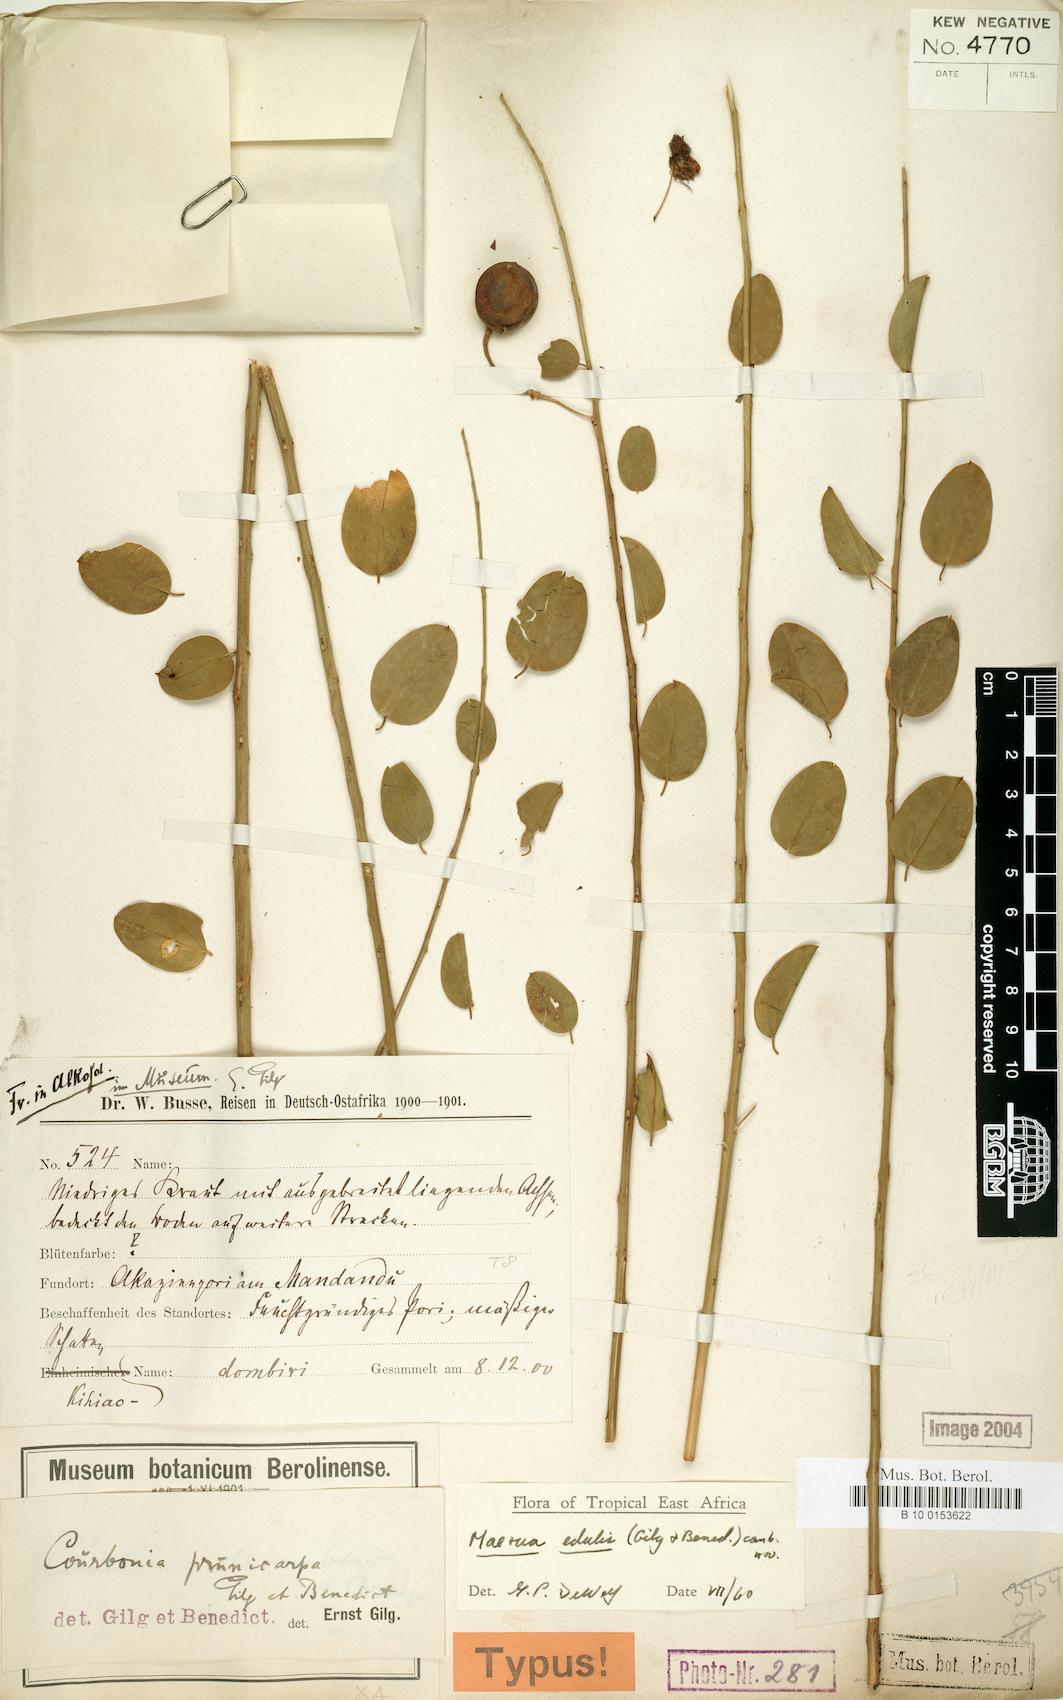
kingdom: Plantae
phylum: Tracheophyta
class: Magnoliopsida
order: Brassicales
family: Capparaceae
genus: Maerua
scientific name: Maerua edulis
